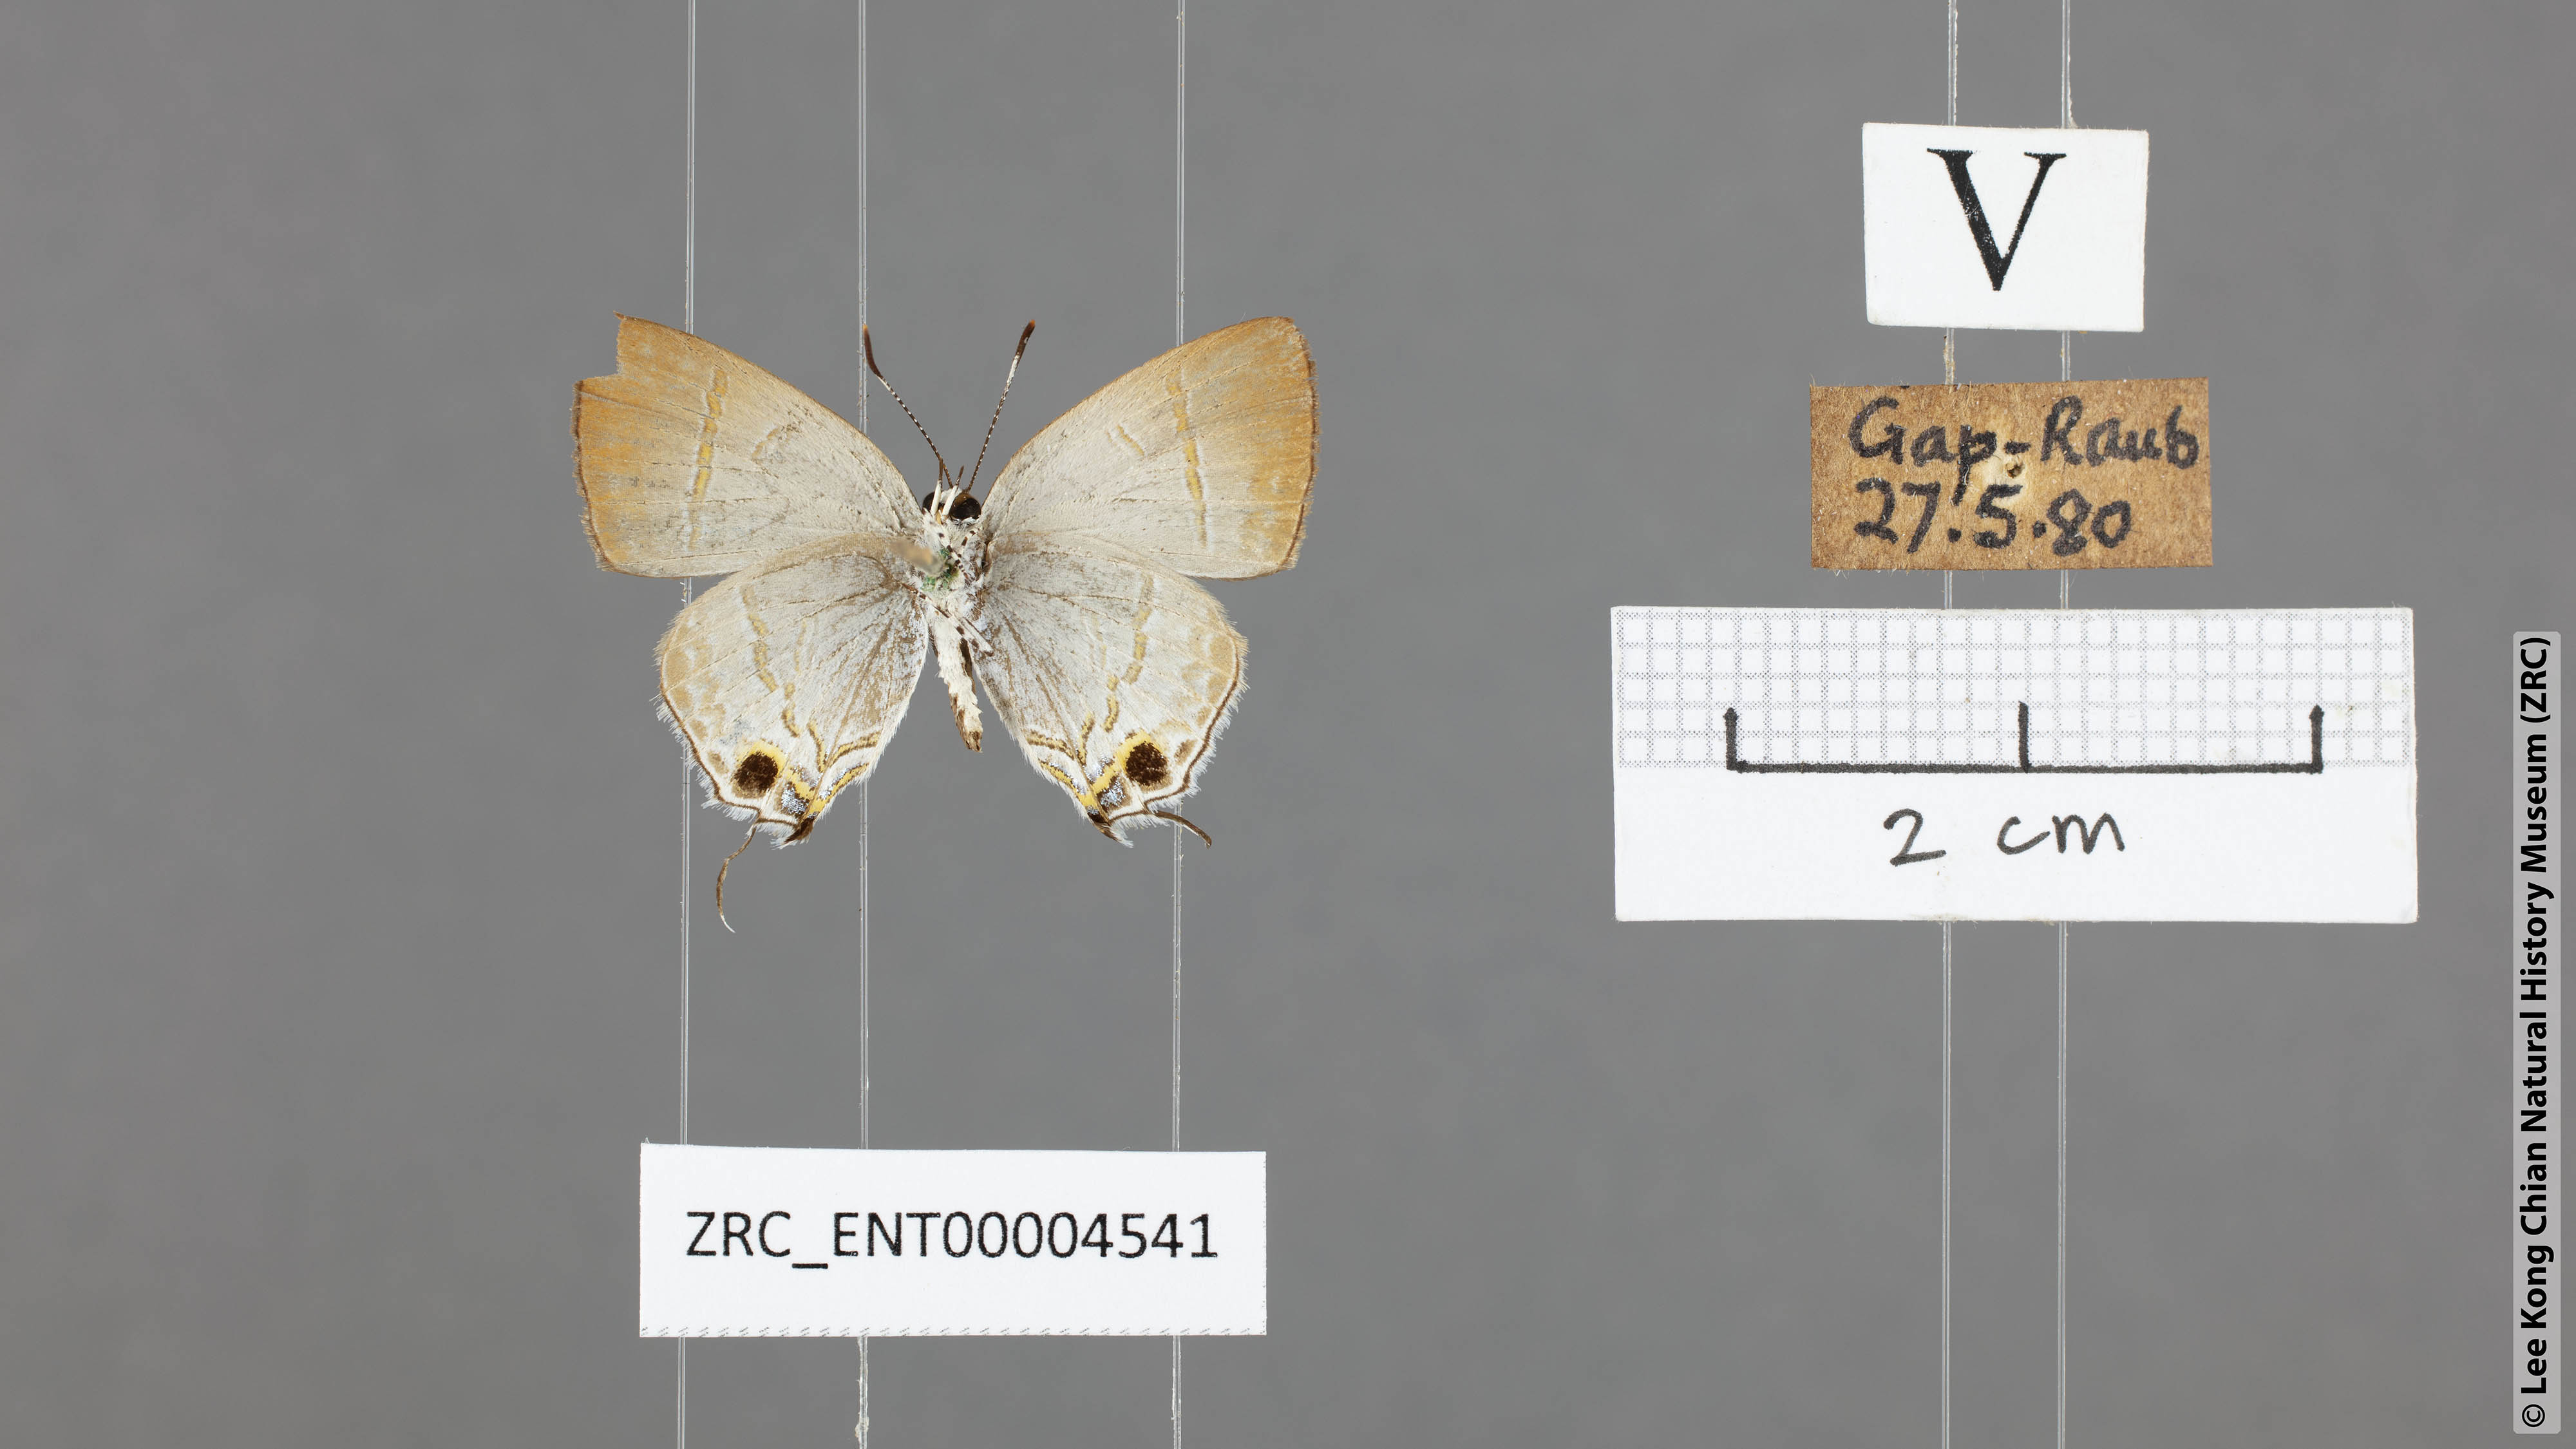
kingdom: Animalia
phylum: Arthropoda
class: Insecta
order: Lepidoptera
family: Lycaenidae
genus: Sinthusa
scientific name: Sinthusa nasaka
